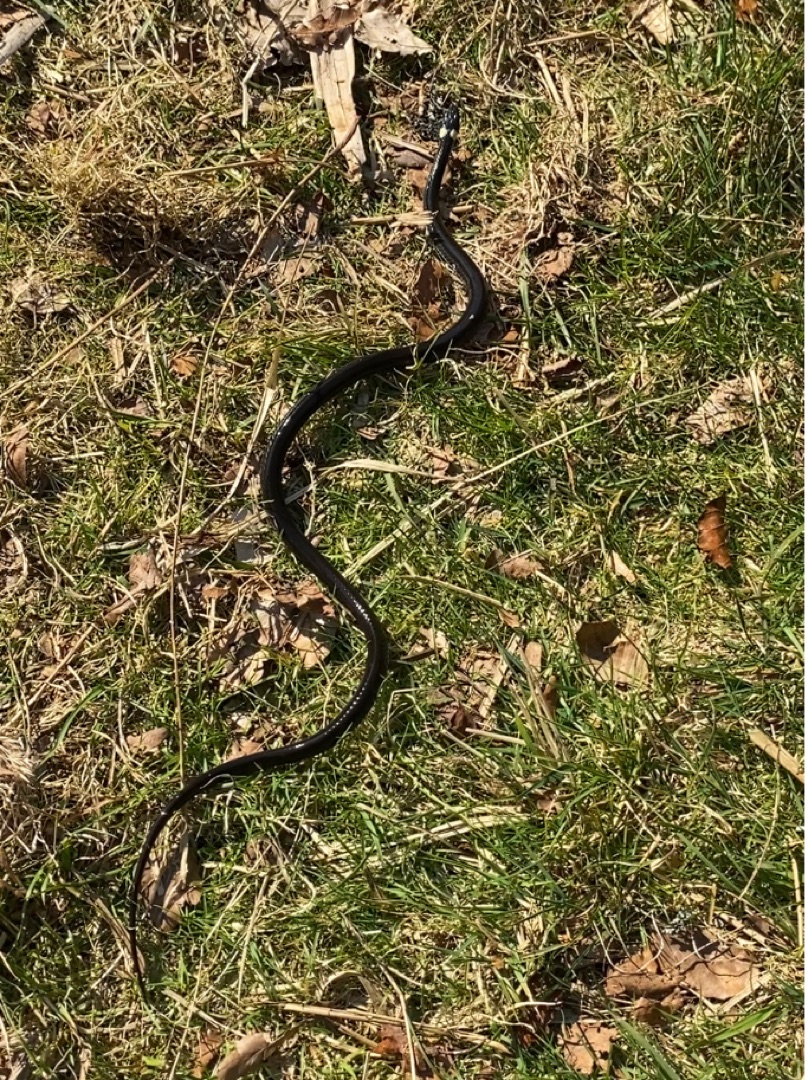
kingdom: Animalia
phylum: Chordata
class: Squamata
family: Colubridae
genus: Natrix
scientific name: Natrix natrix
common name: Snog
